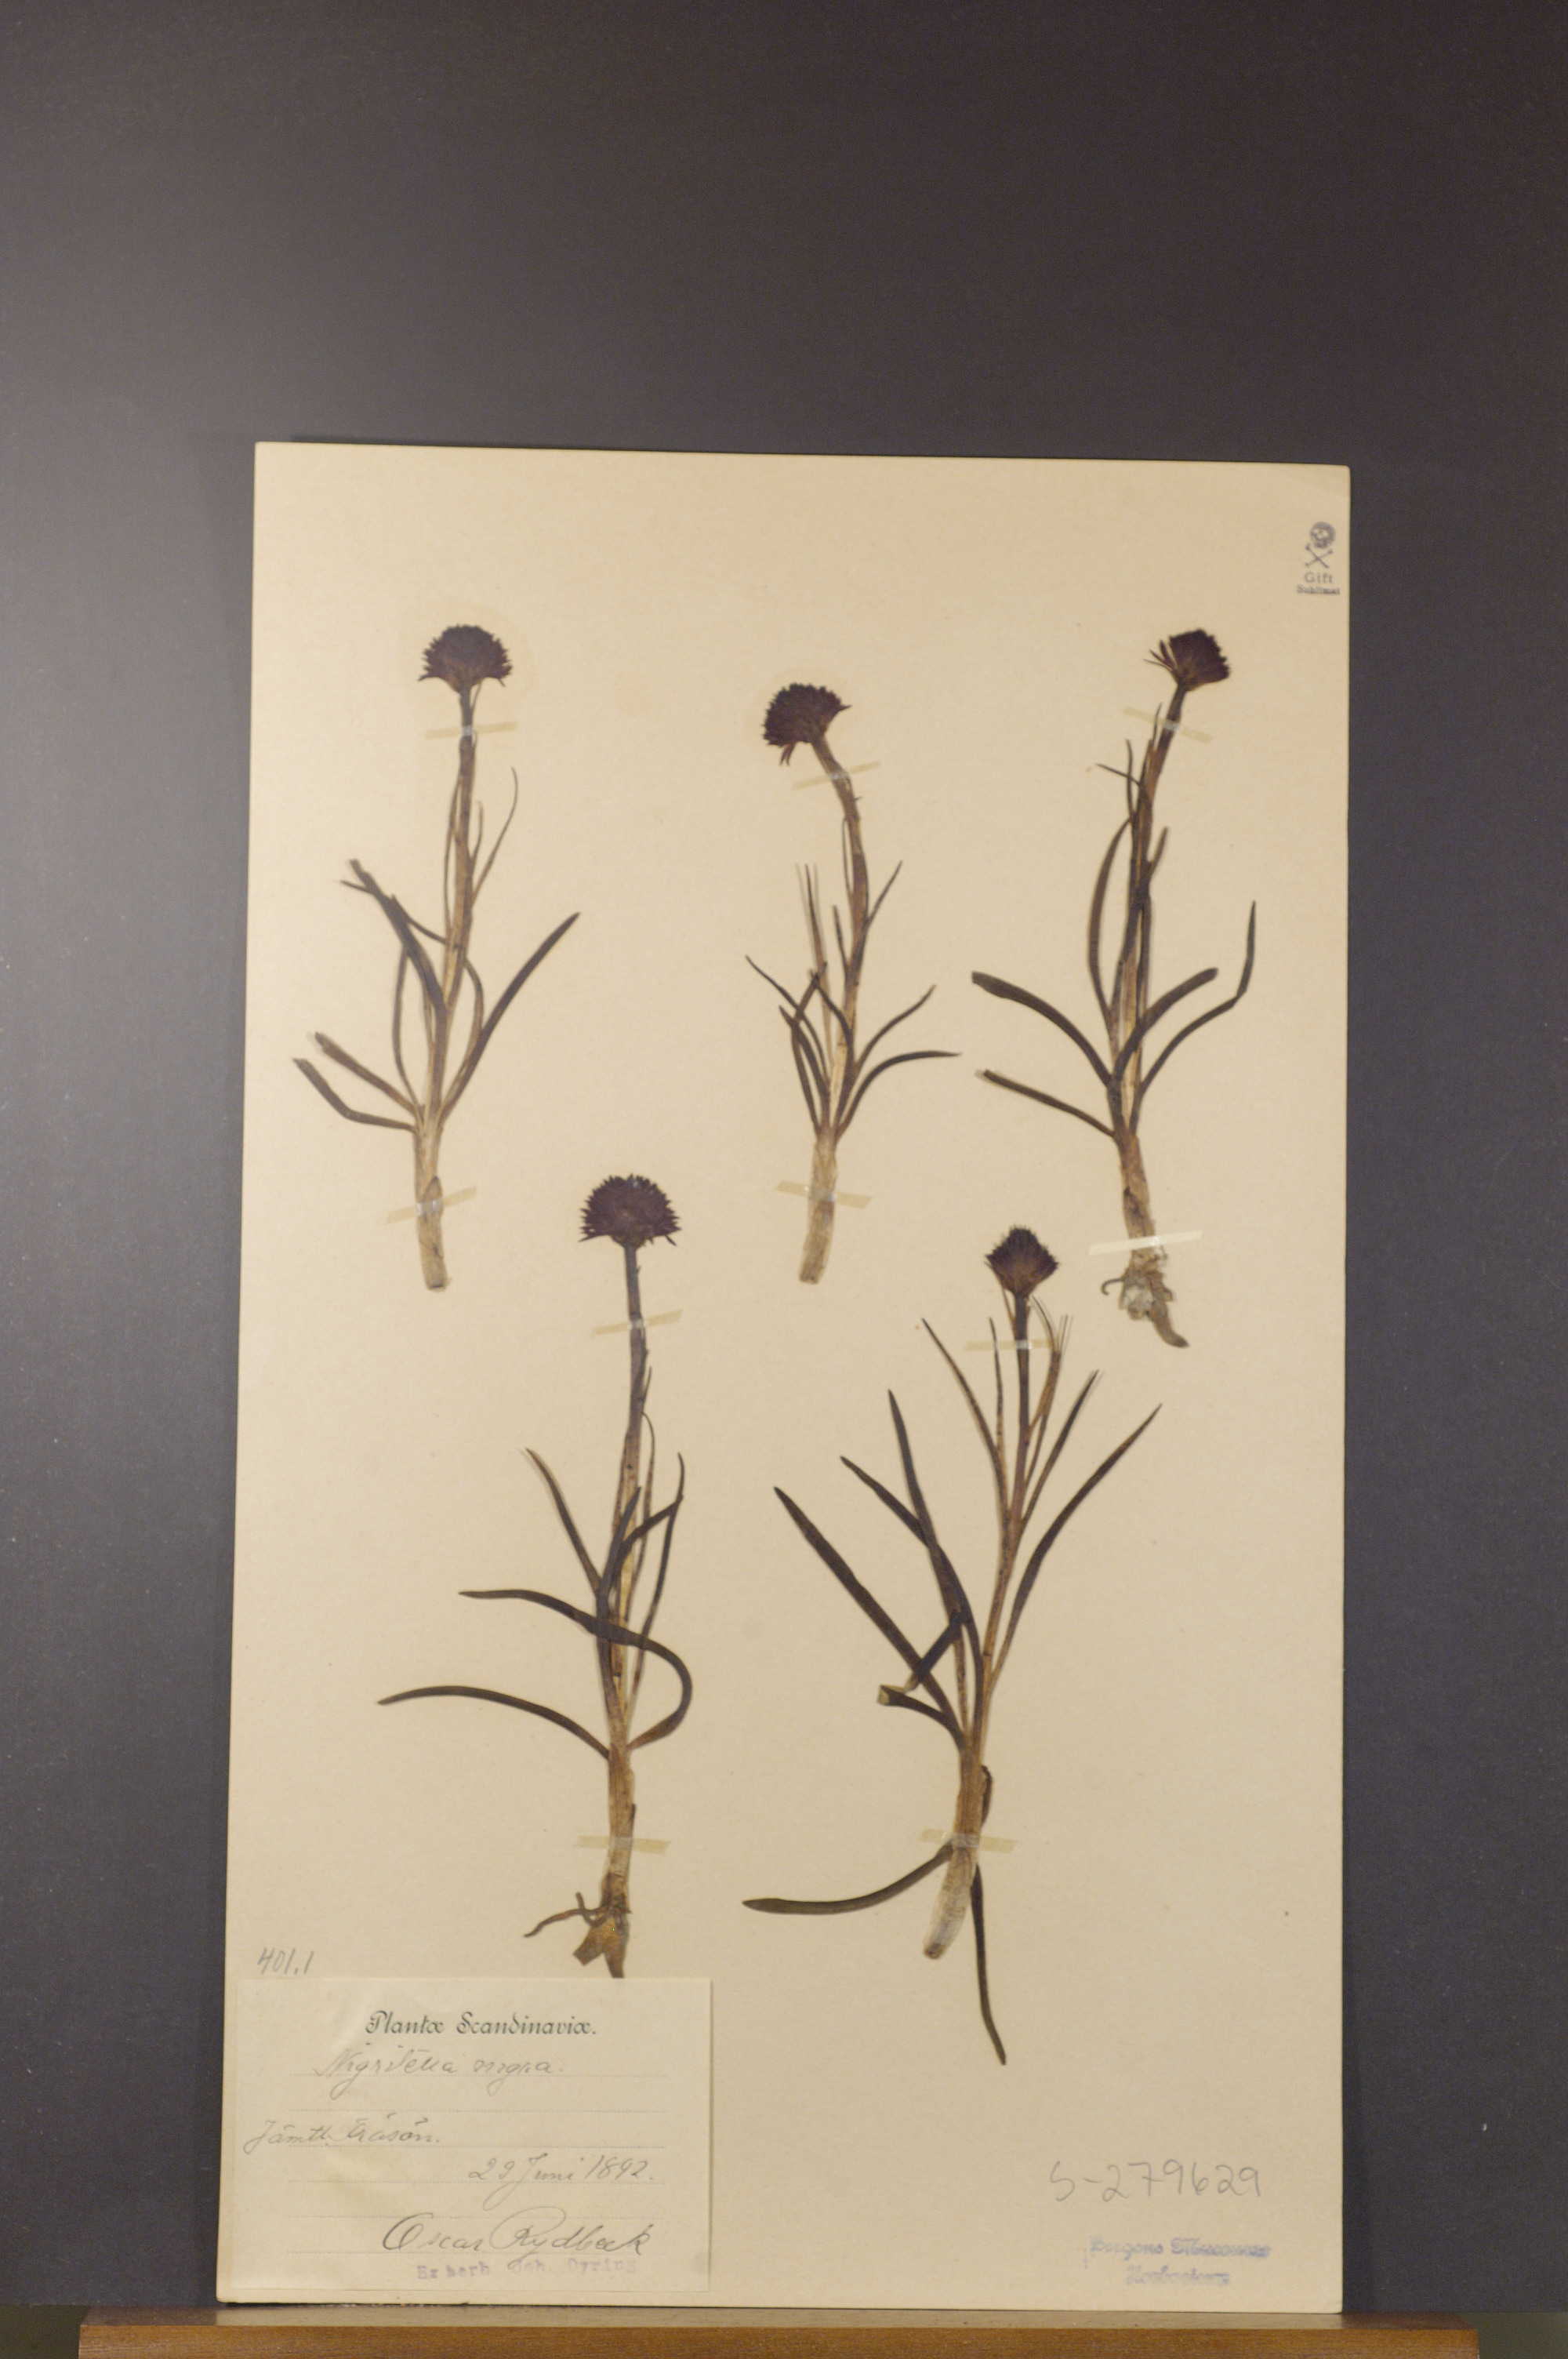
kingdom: Plantae
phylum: Tracheophyta
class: Liliopsida
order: Asparagales
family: Orchidaceae
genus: Gymnadenia
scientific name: Gymnadenia nigra
